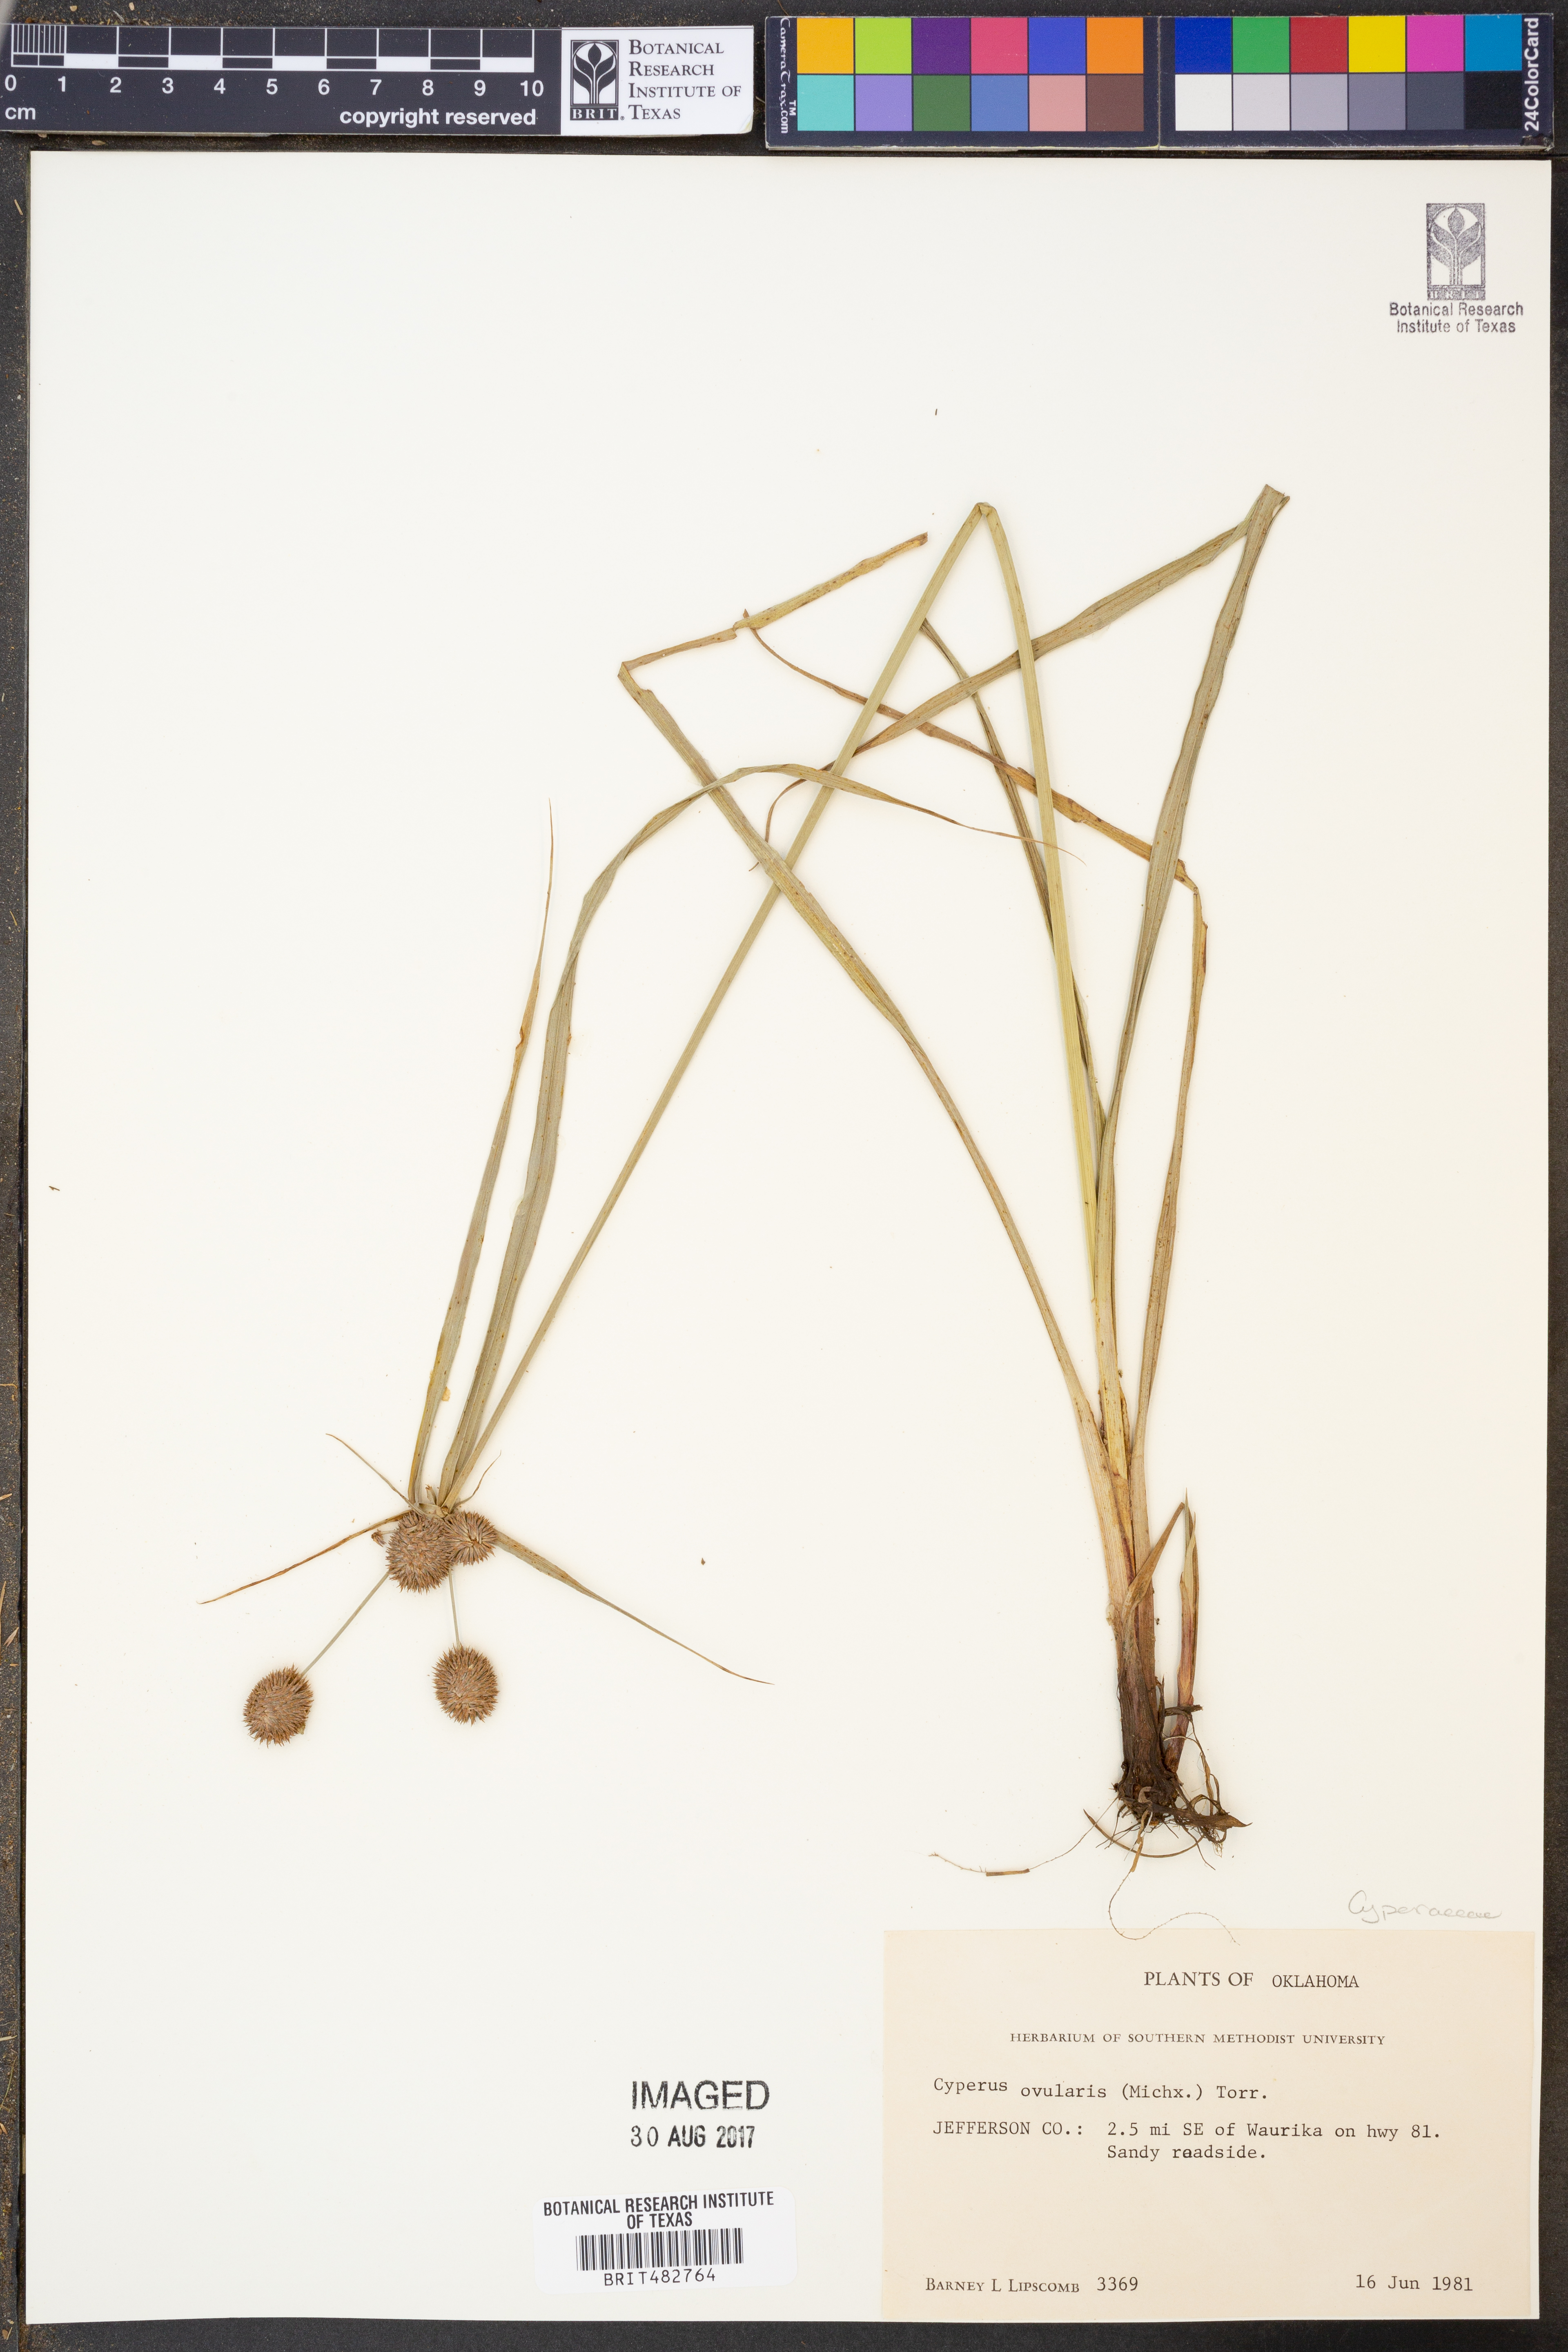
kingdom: Plantae
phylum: Tracheophyta
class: Liliopsida
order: Poales
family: Cyperaceae
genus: Cyperus
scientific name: Cyperus echinatus
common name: Teasel sedge
